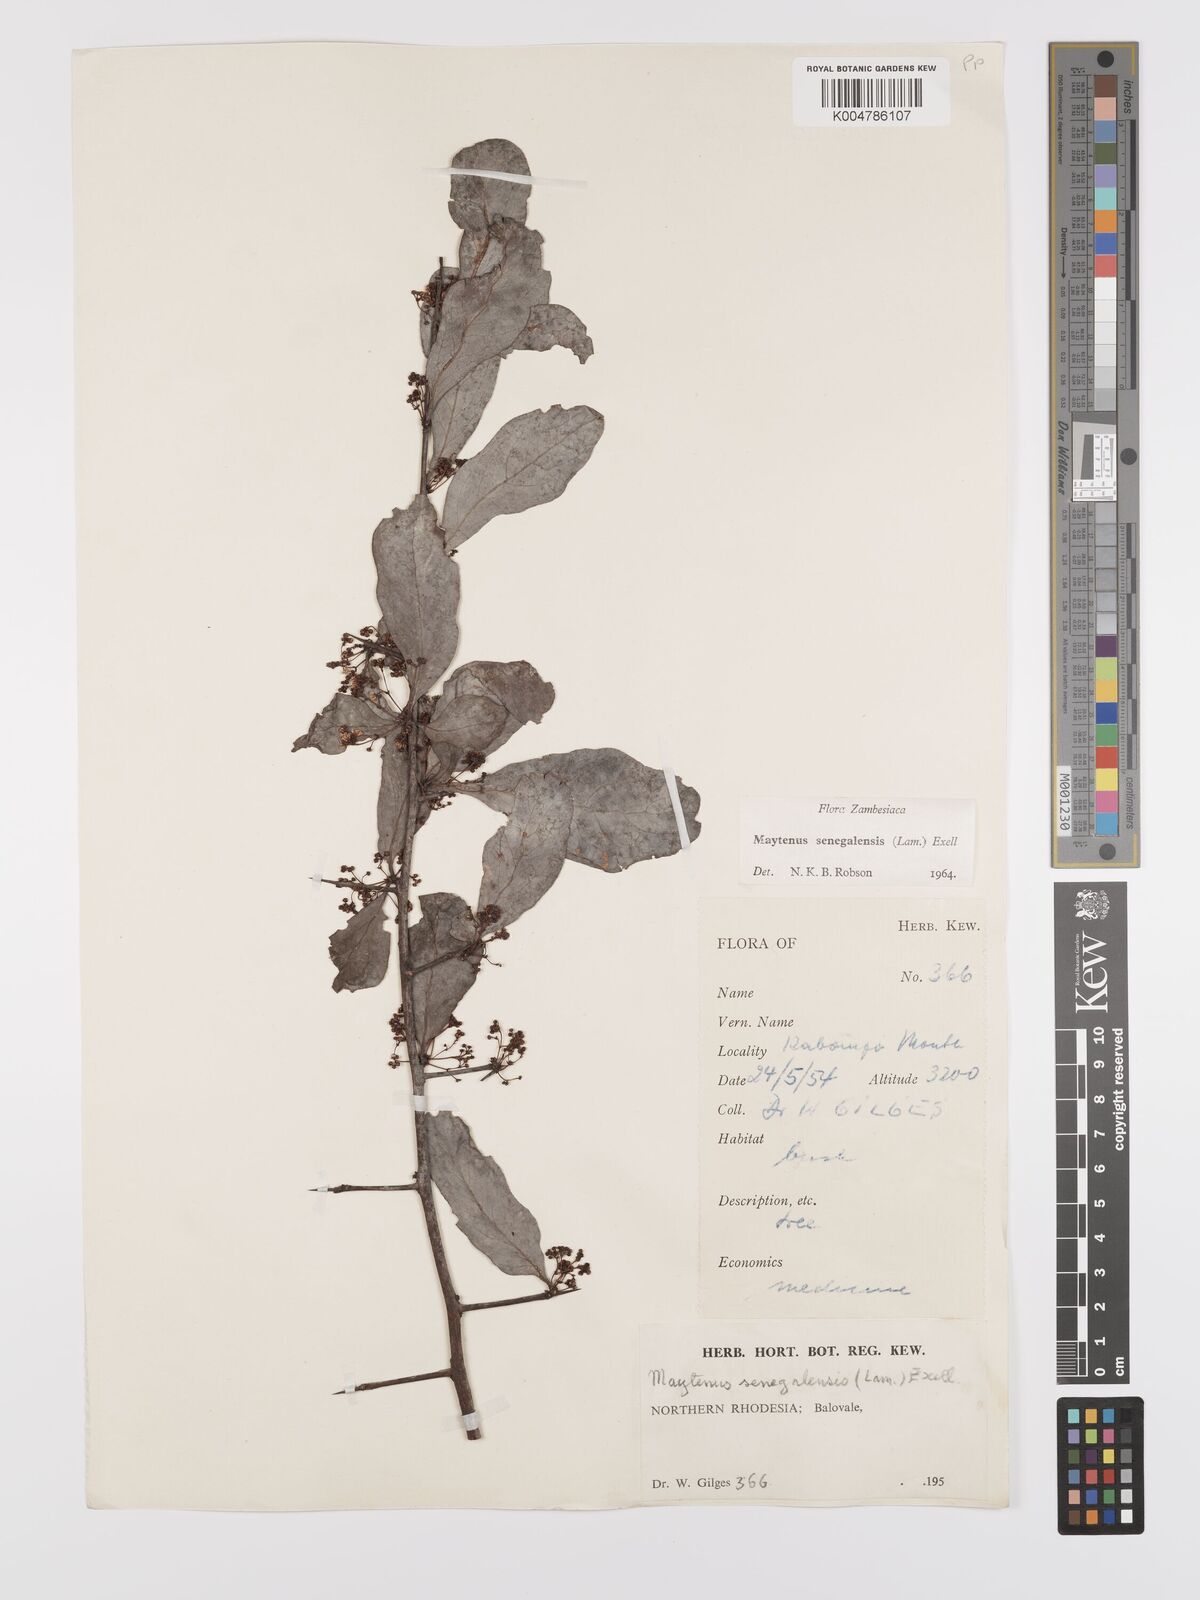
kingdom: Plantae
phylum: Tracheophyta
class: Magnoliopsida
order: Celastrales
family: Celastraceae
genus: Gymnosporia
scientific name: Gymnosporia senegalensis
